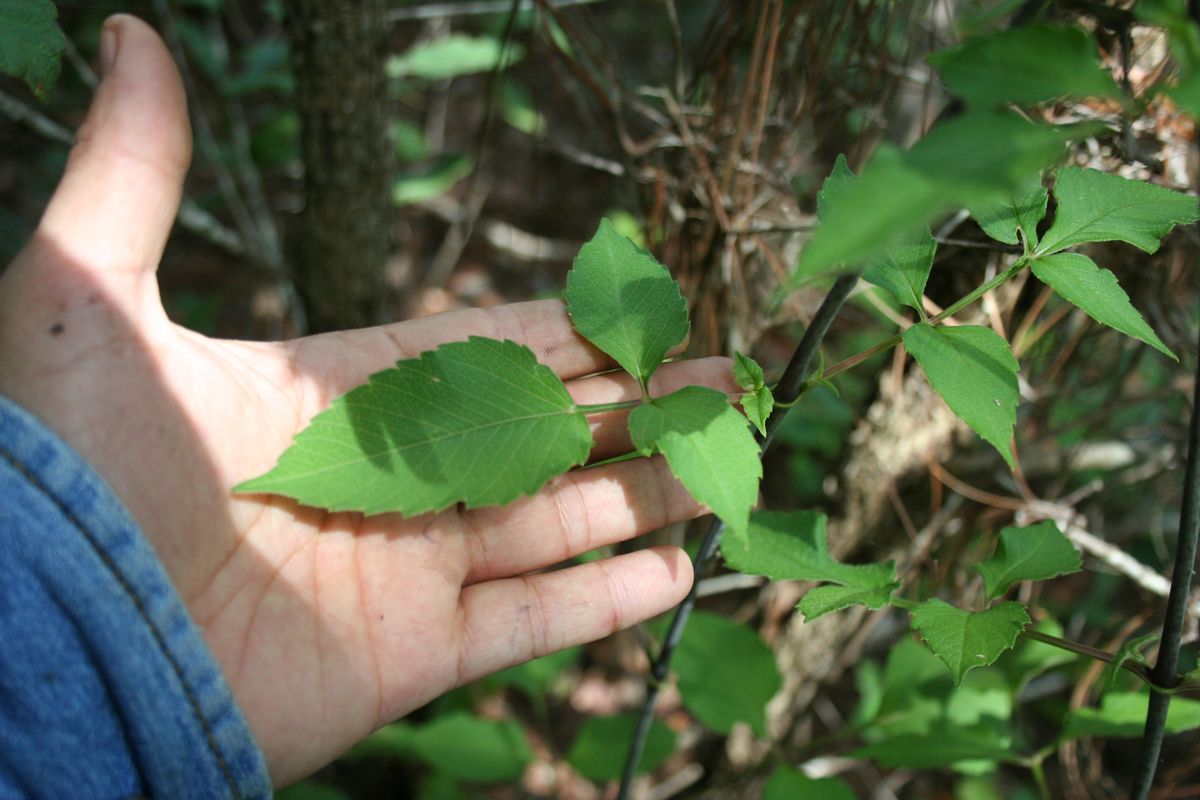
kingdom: Plantae
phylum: Tracheophyta
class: Magnoliopsida
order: Asterales
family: Asteraceae
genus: Dahlia
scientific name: Dahlia coccinea
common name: Red dahlia
